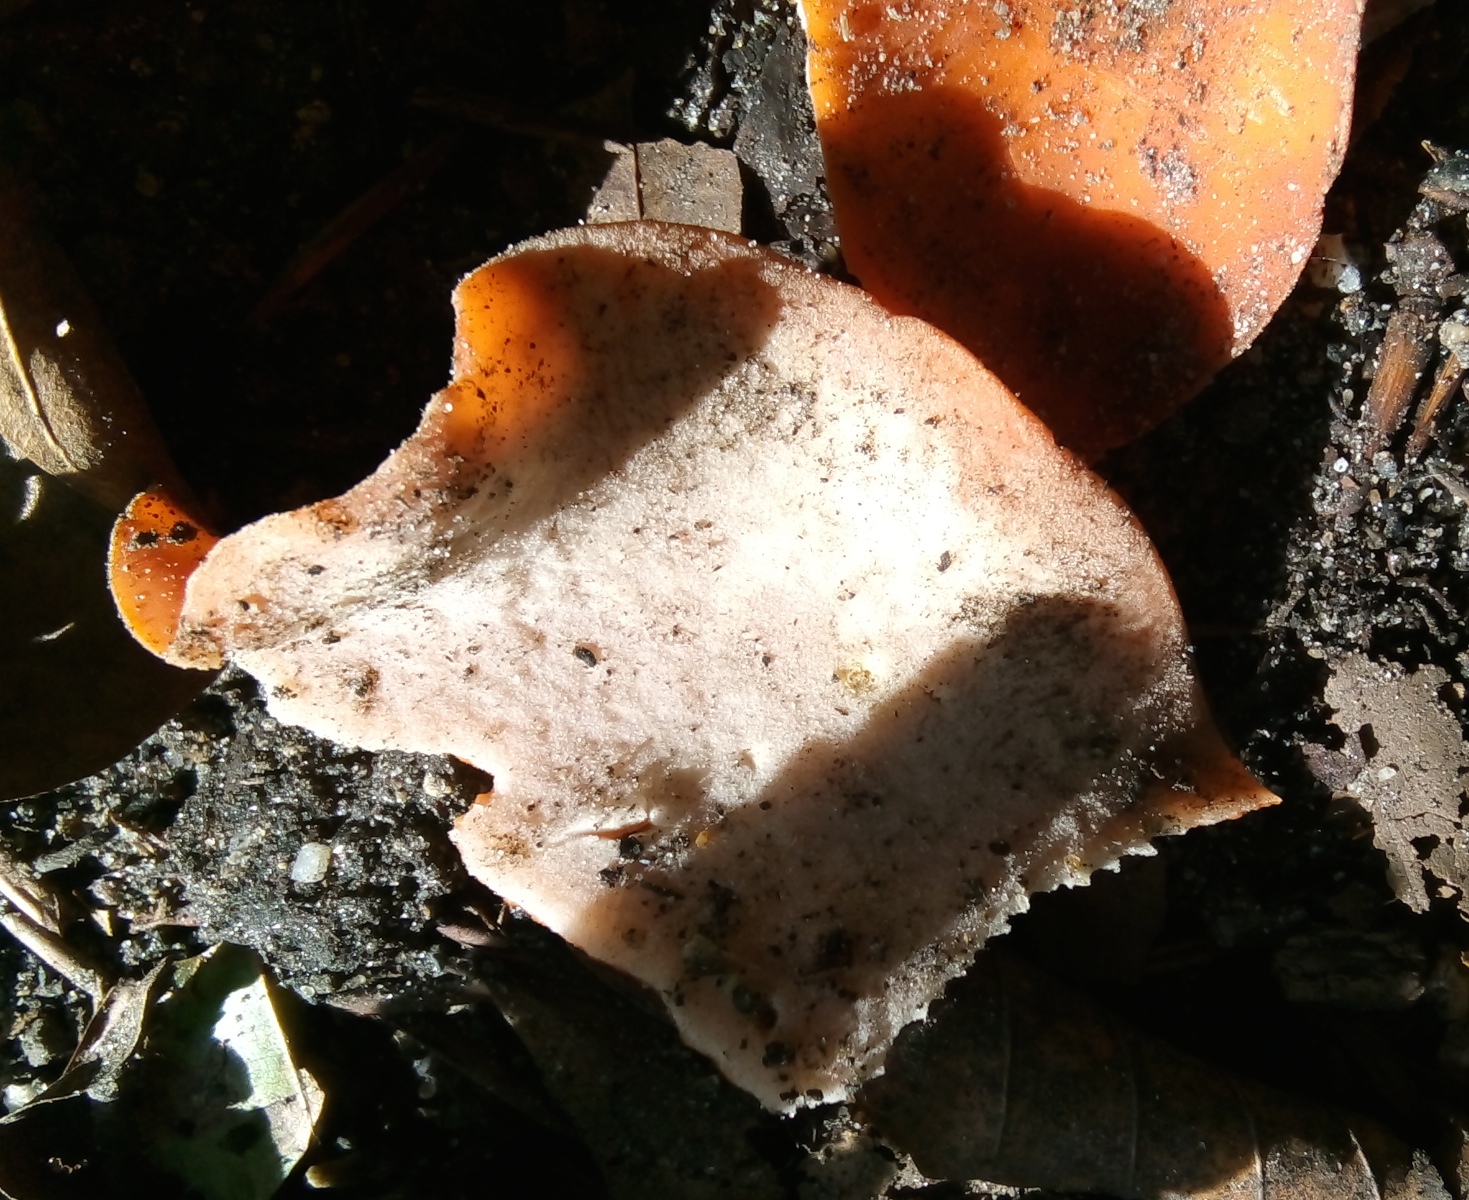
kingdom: Fungi
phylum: Ascomycota
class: Pezizomycetes
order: Pezizales
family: Pyronemataceae
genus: Aleuria
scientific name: Aleuria aurantia
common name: almindelig orangebæger
